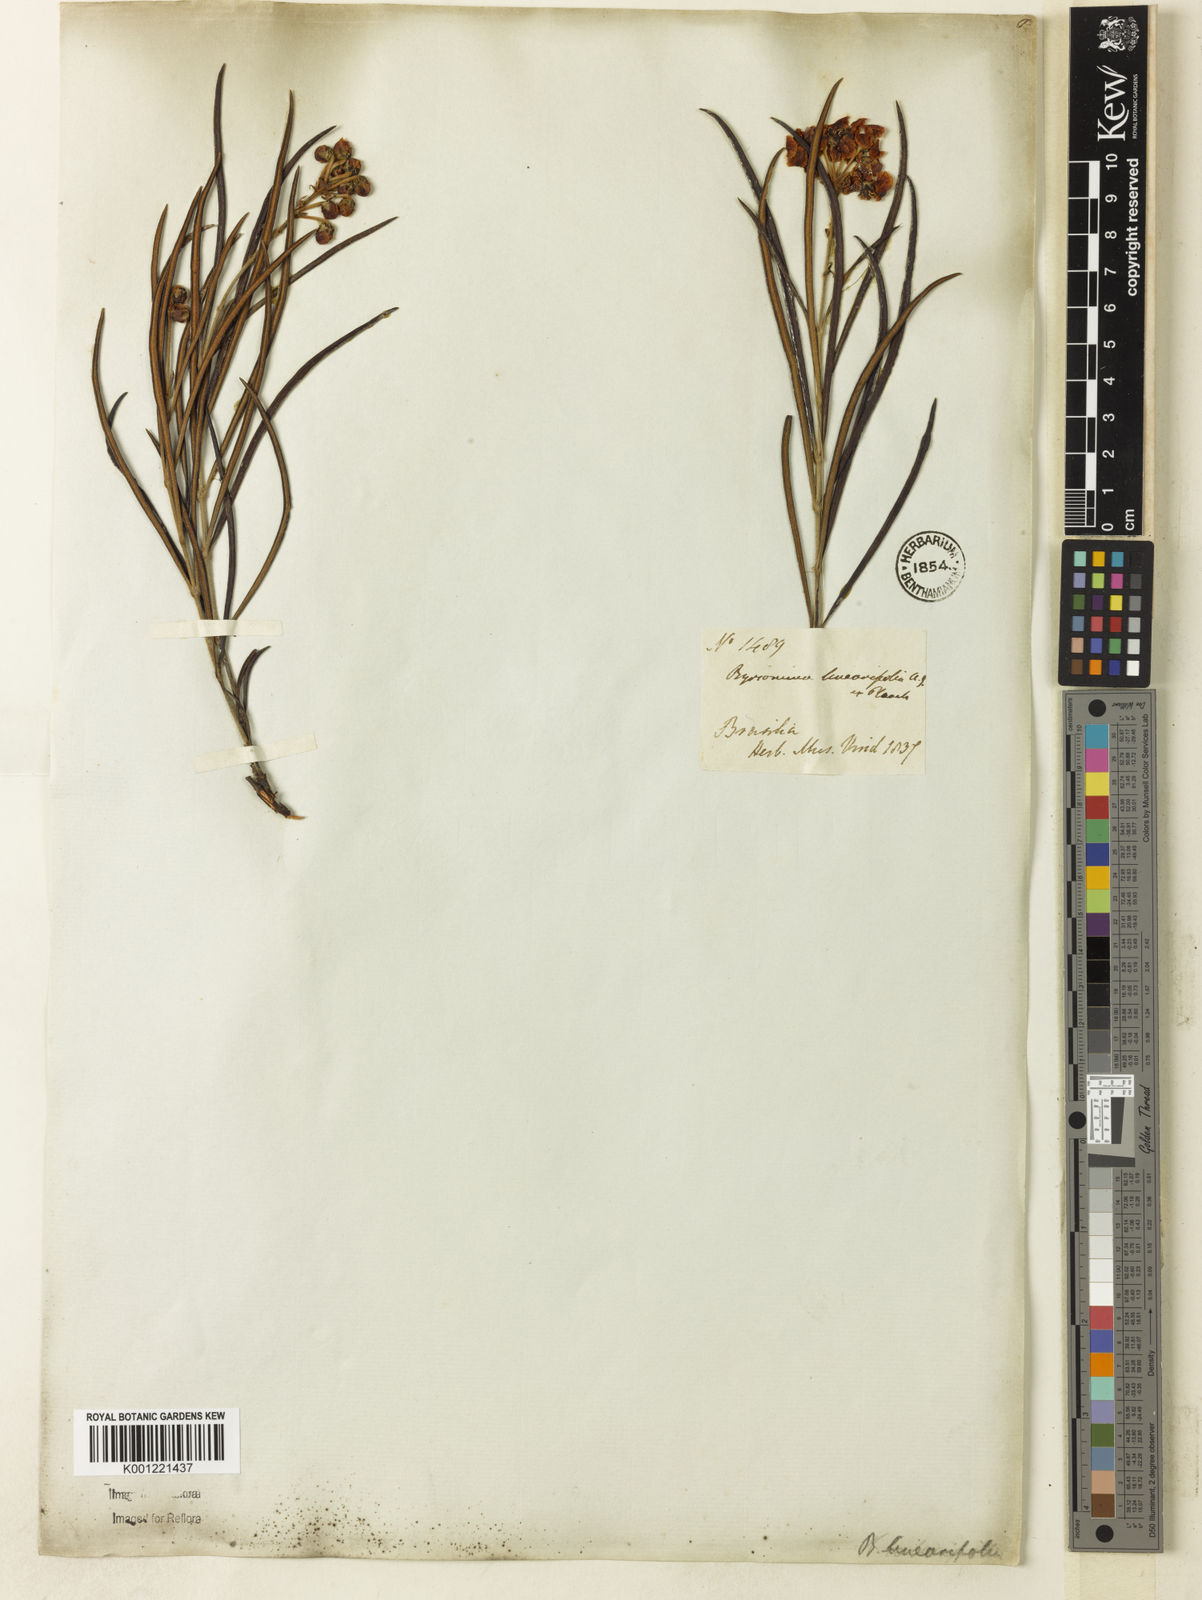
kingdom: Plantae
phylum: Tracheophyta
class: Magnoliopsida
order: Malpighiales
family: Malpighiaceae
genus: Byrsonima
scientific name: Byrsonima linearifolia
